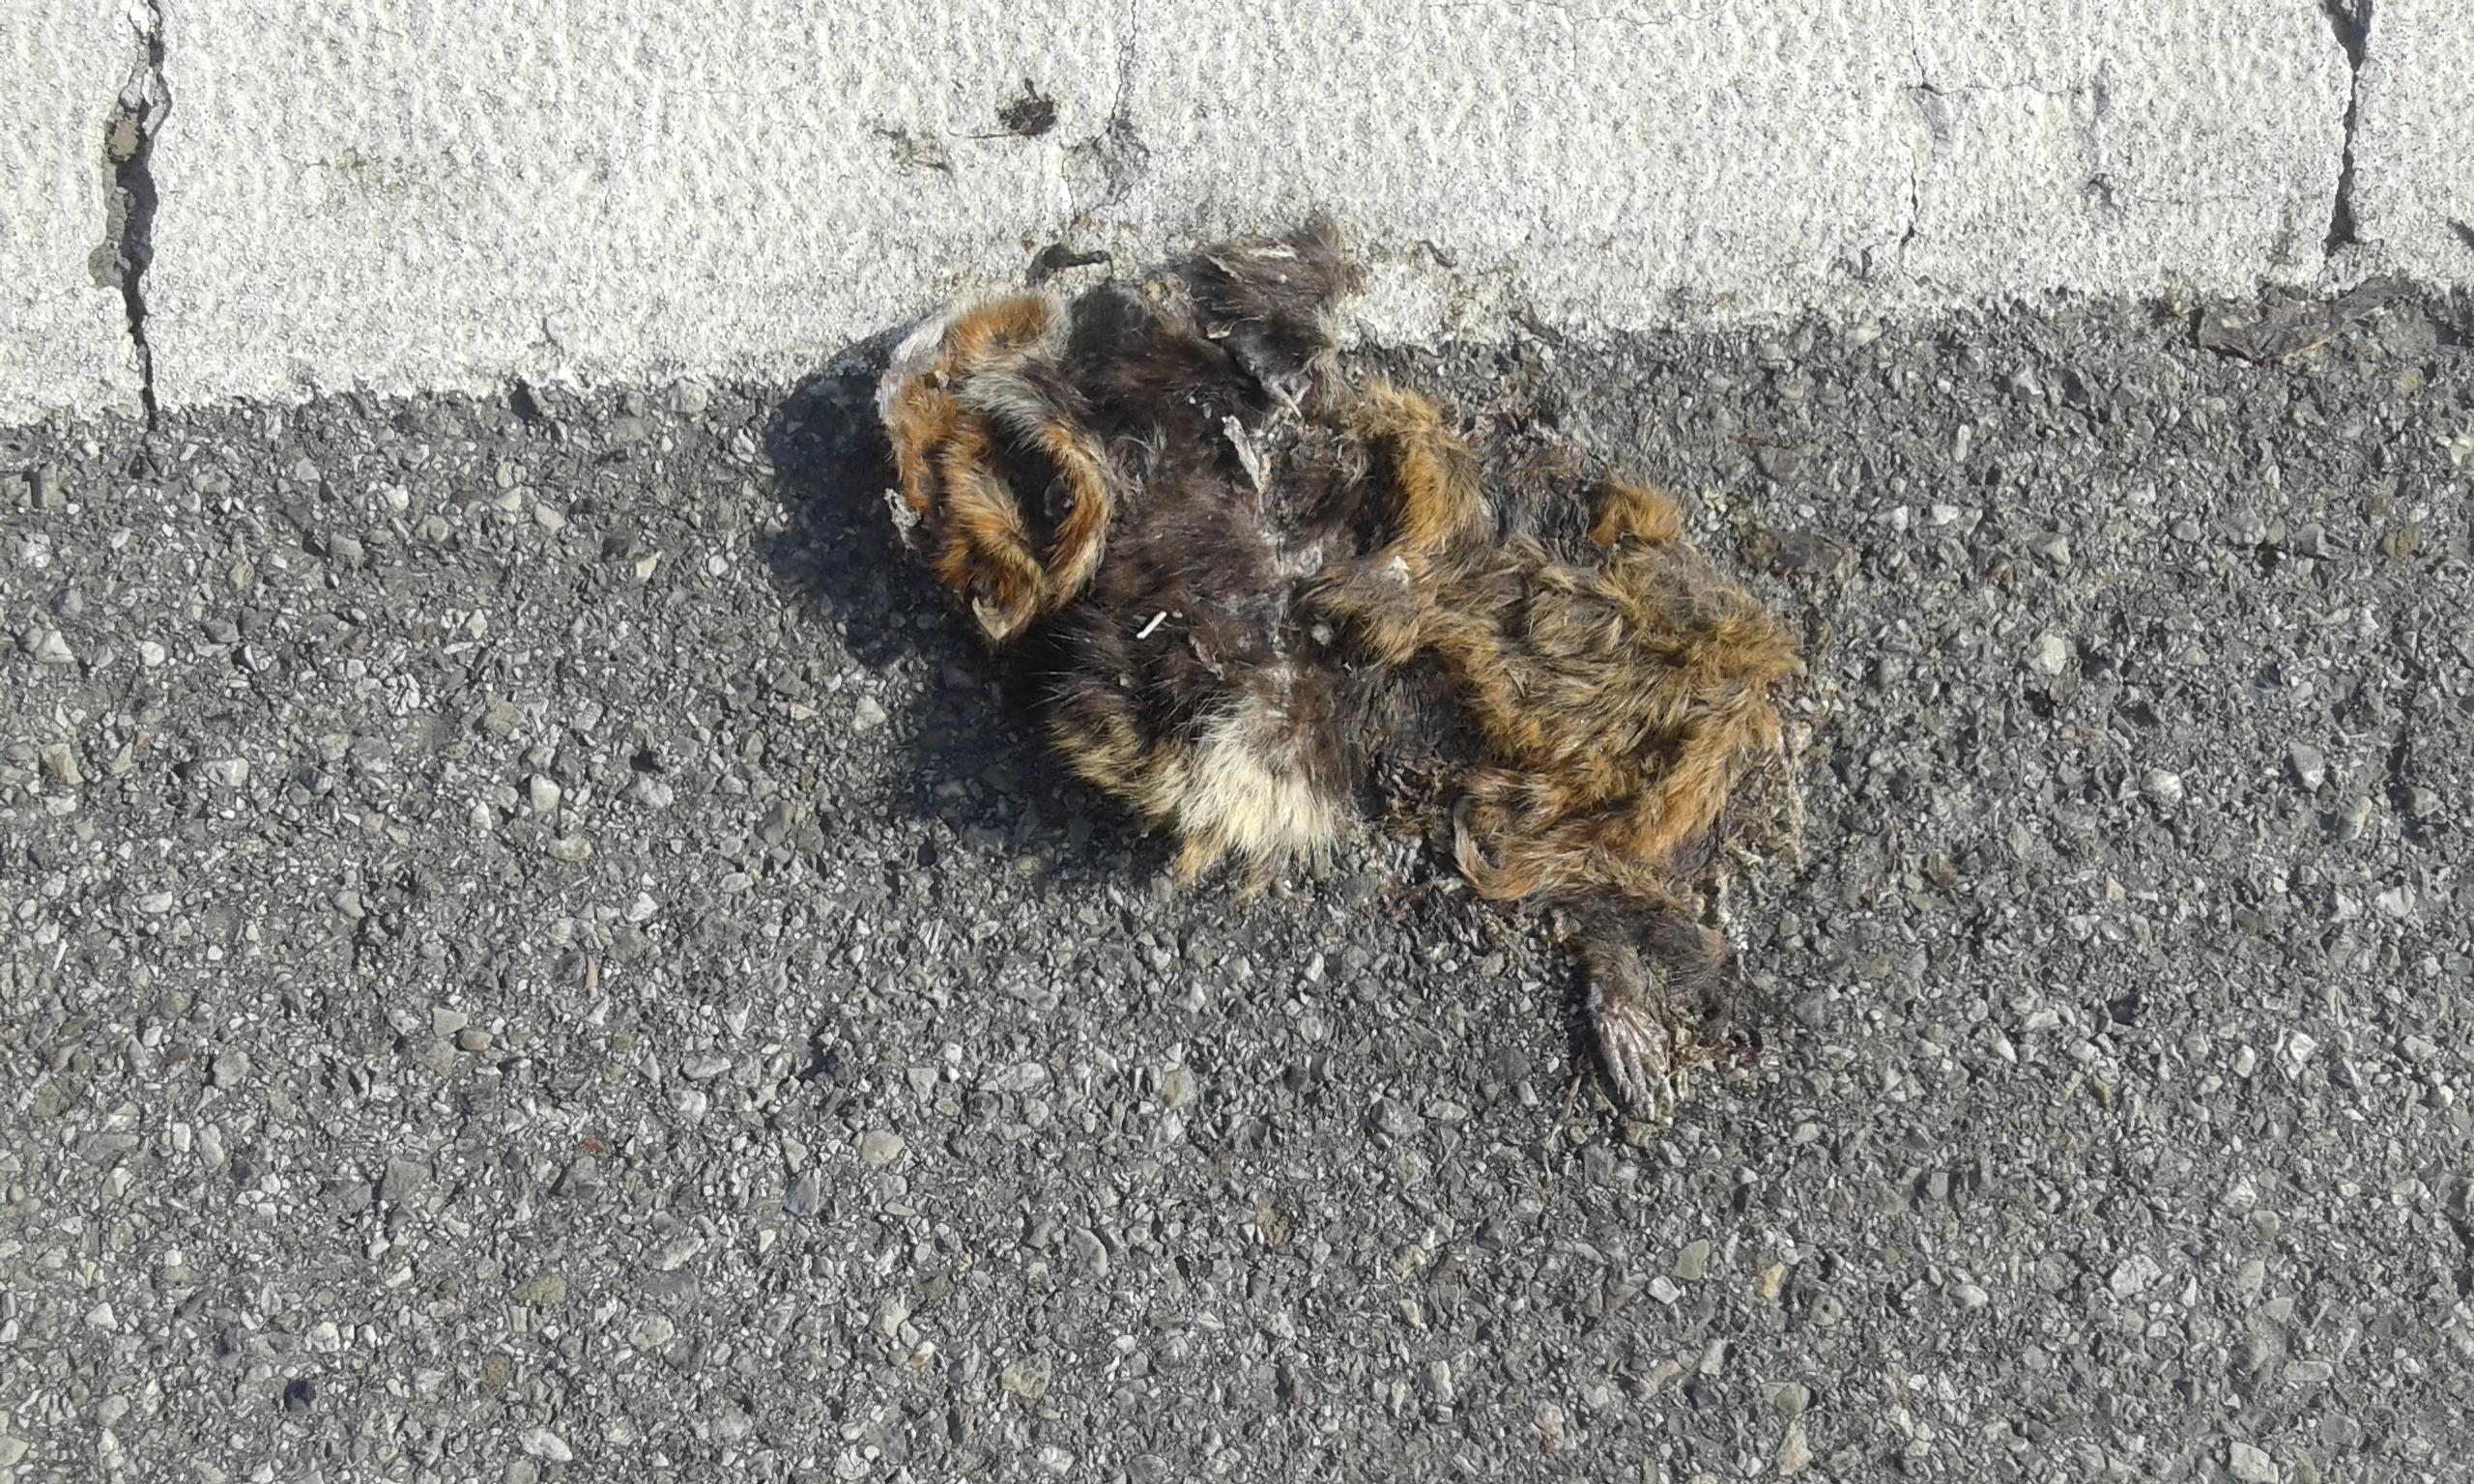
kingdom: Animalia
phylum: Chordata
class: Mammalia
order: Rodentia
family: Cricetidae
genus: Cricetus
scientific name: Cricetus cricetus
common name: Common hamster
